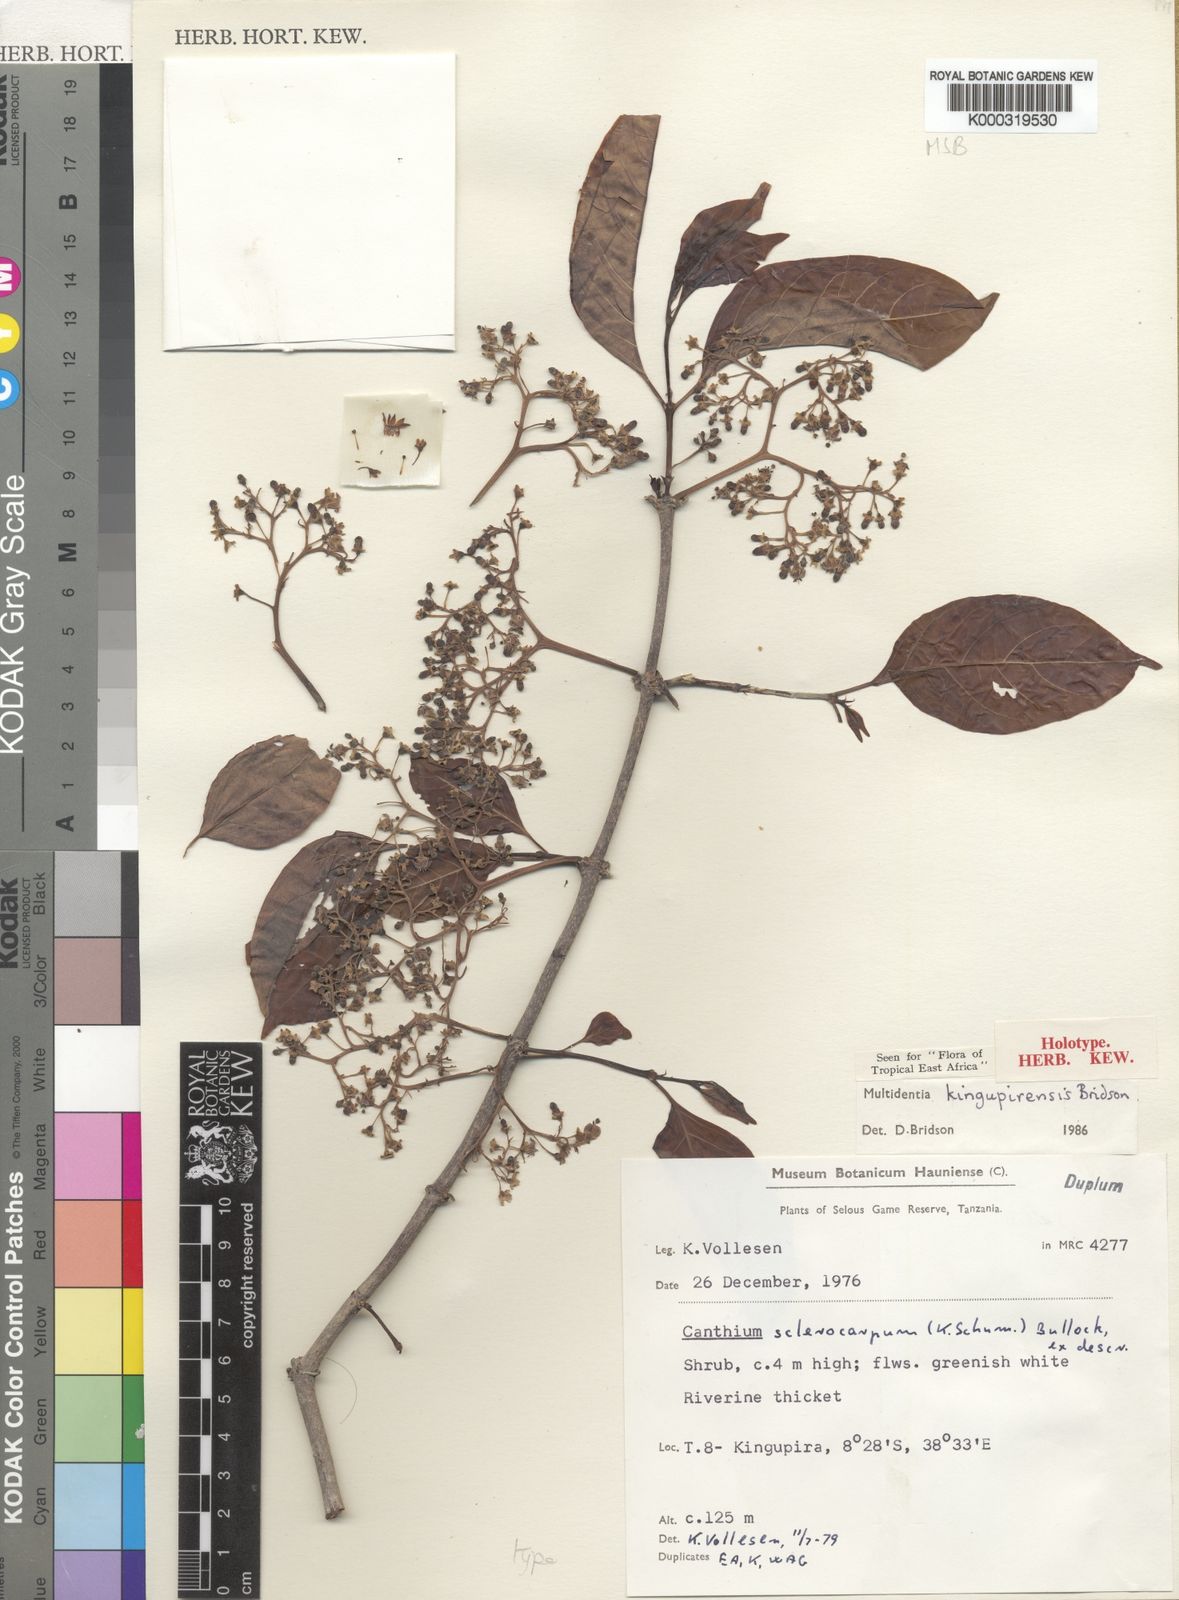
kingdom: Plantae
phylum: Tracheophyta
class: Magnoliopsida
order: Gentianales
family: Rubiaceae
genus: Multidentia
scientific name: Multidentia kingupirensis
